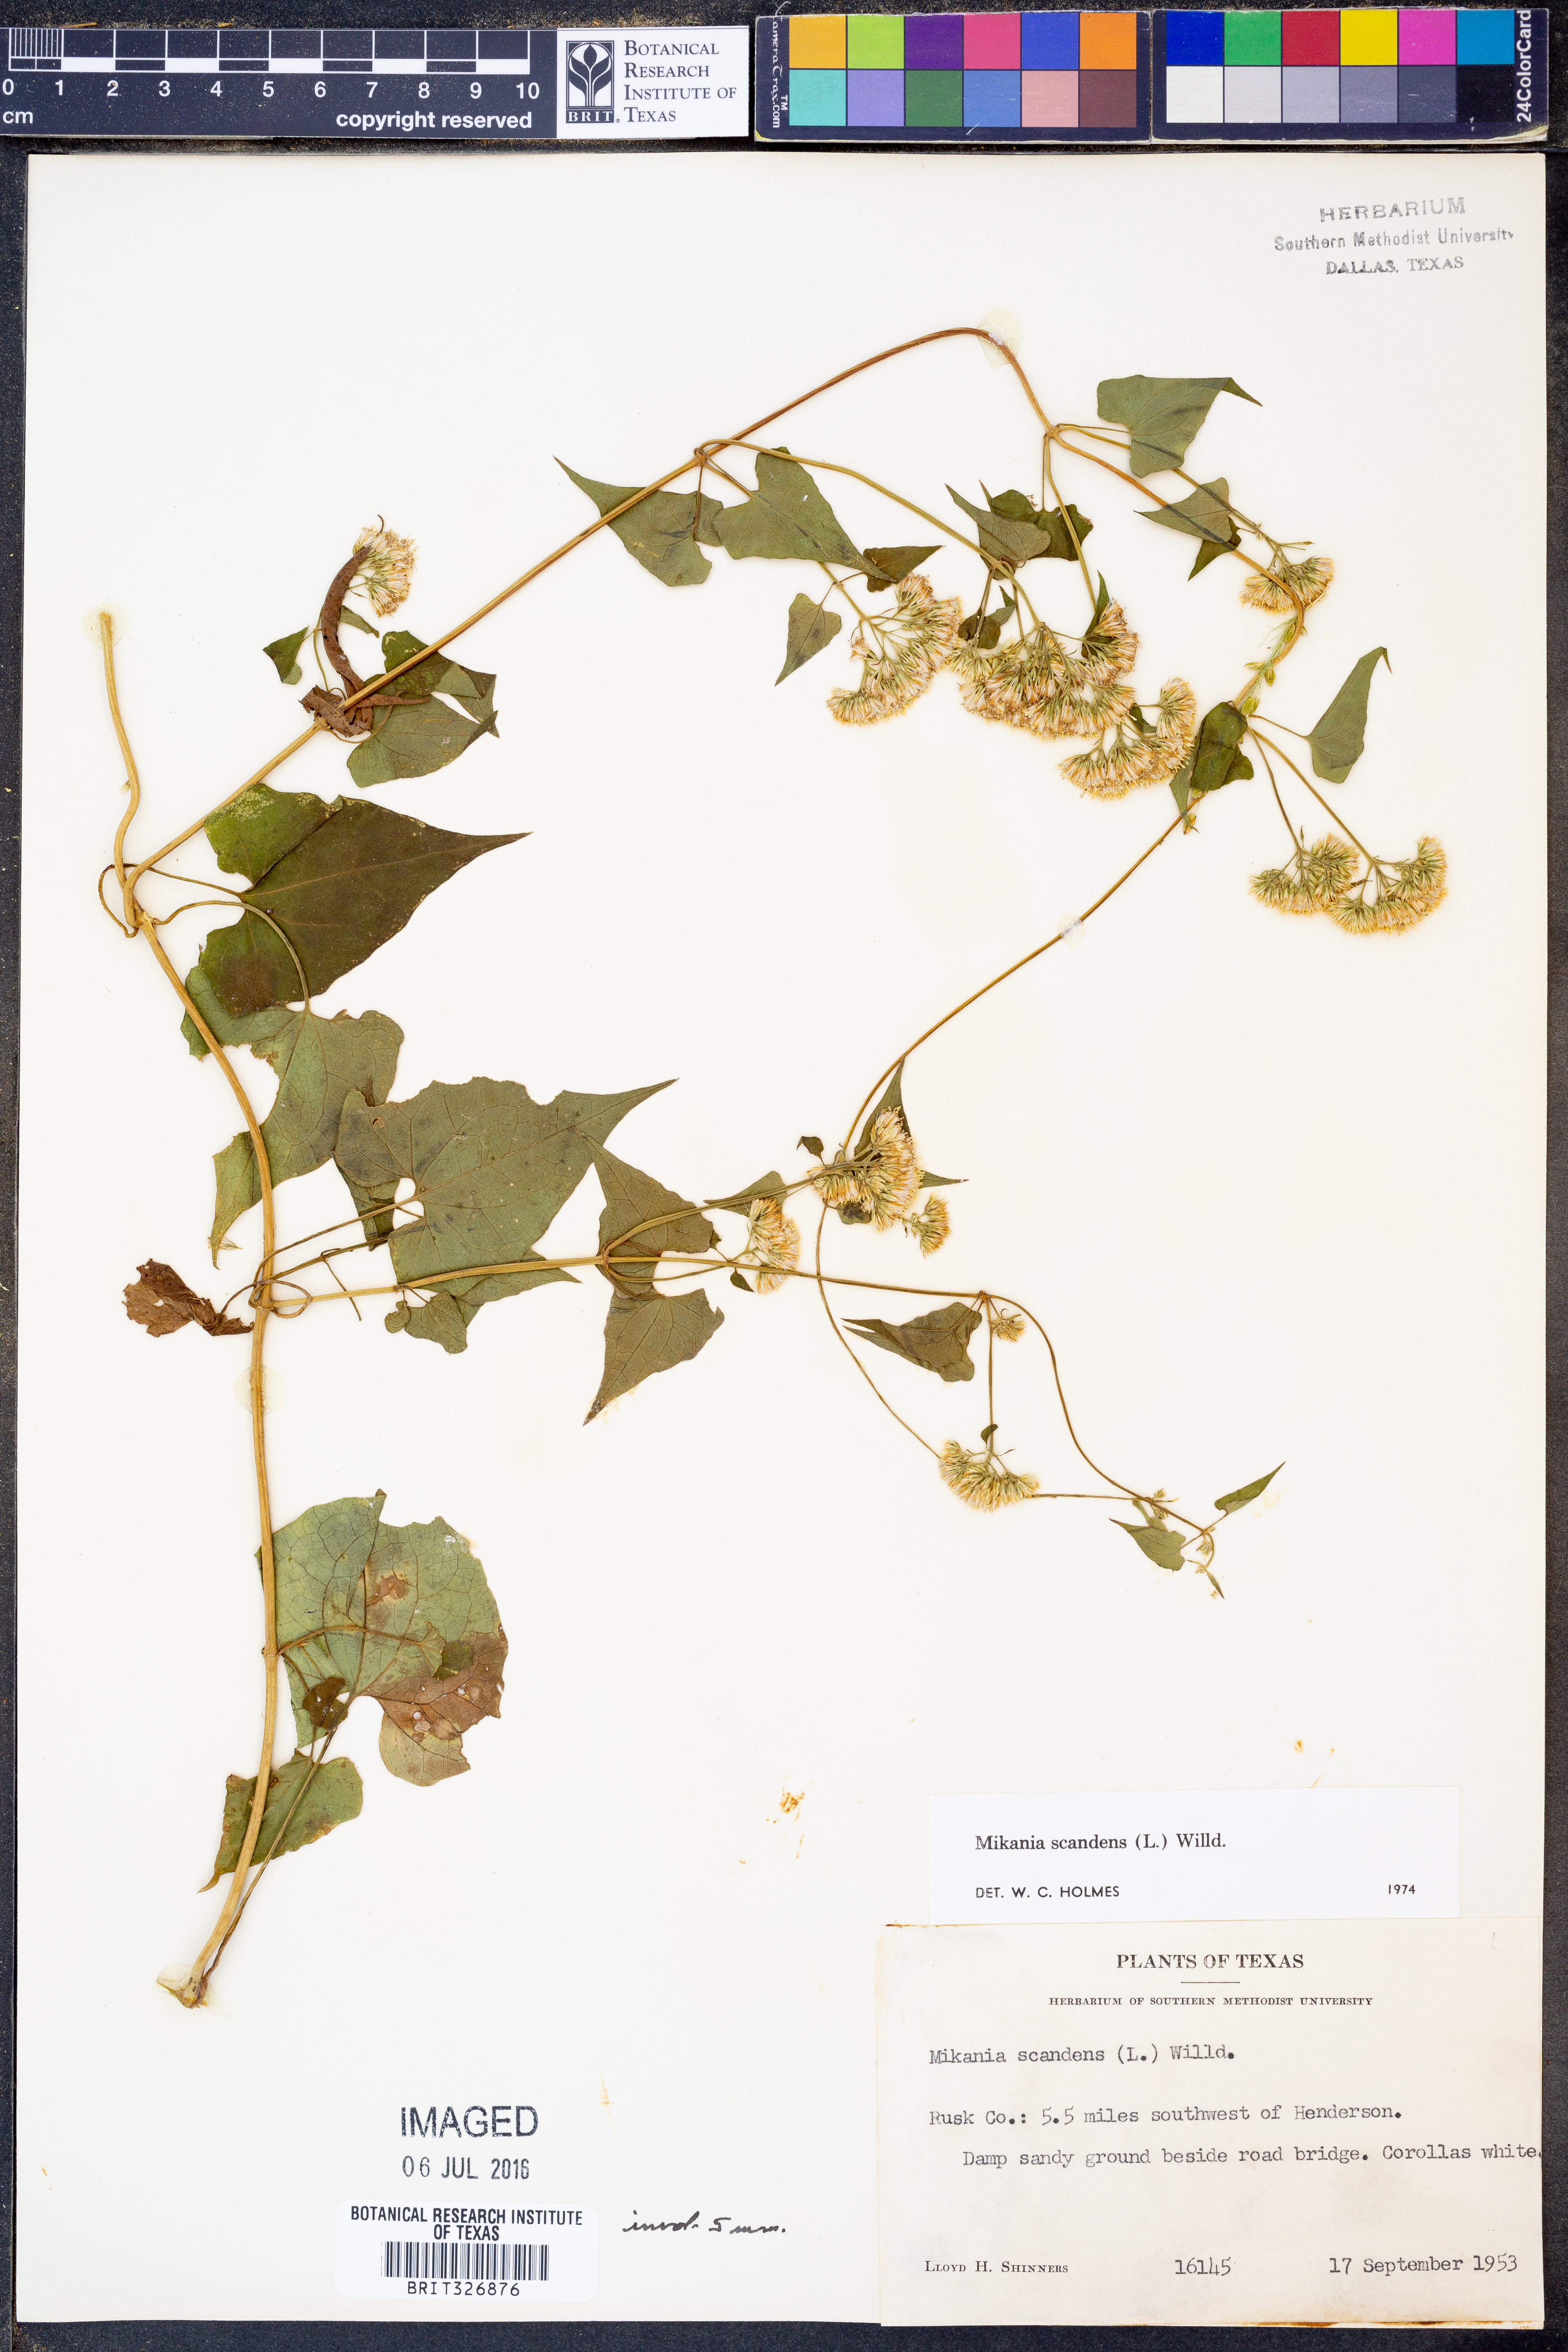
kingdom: Plantae
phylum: Tracheophyta
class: Magnoliopsida
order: Asterales
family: Asteraceae
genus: Mikania
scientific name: Mikania scandens
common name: Climbing hempvine
